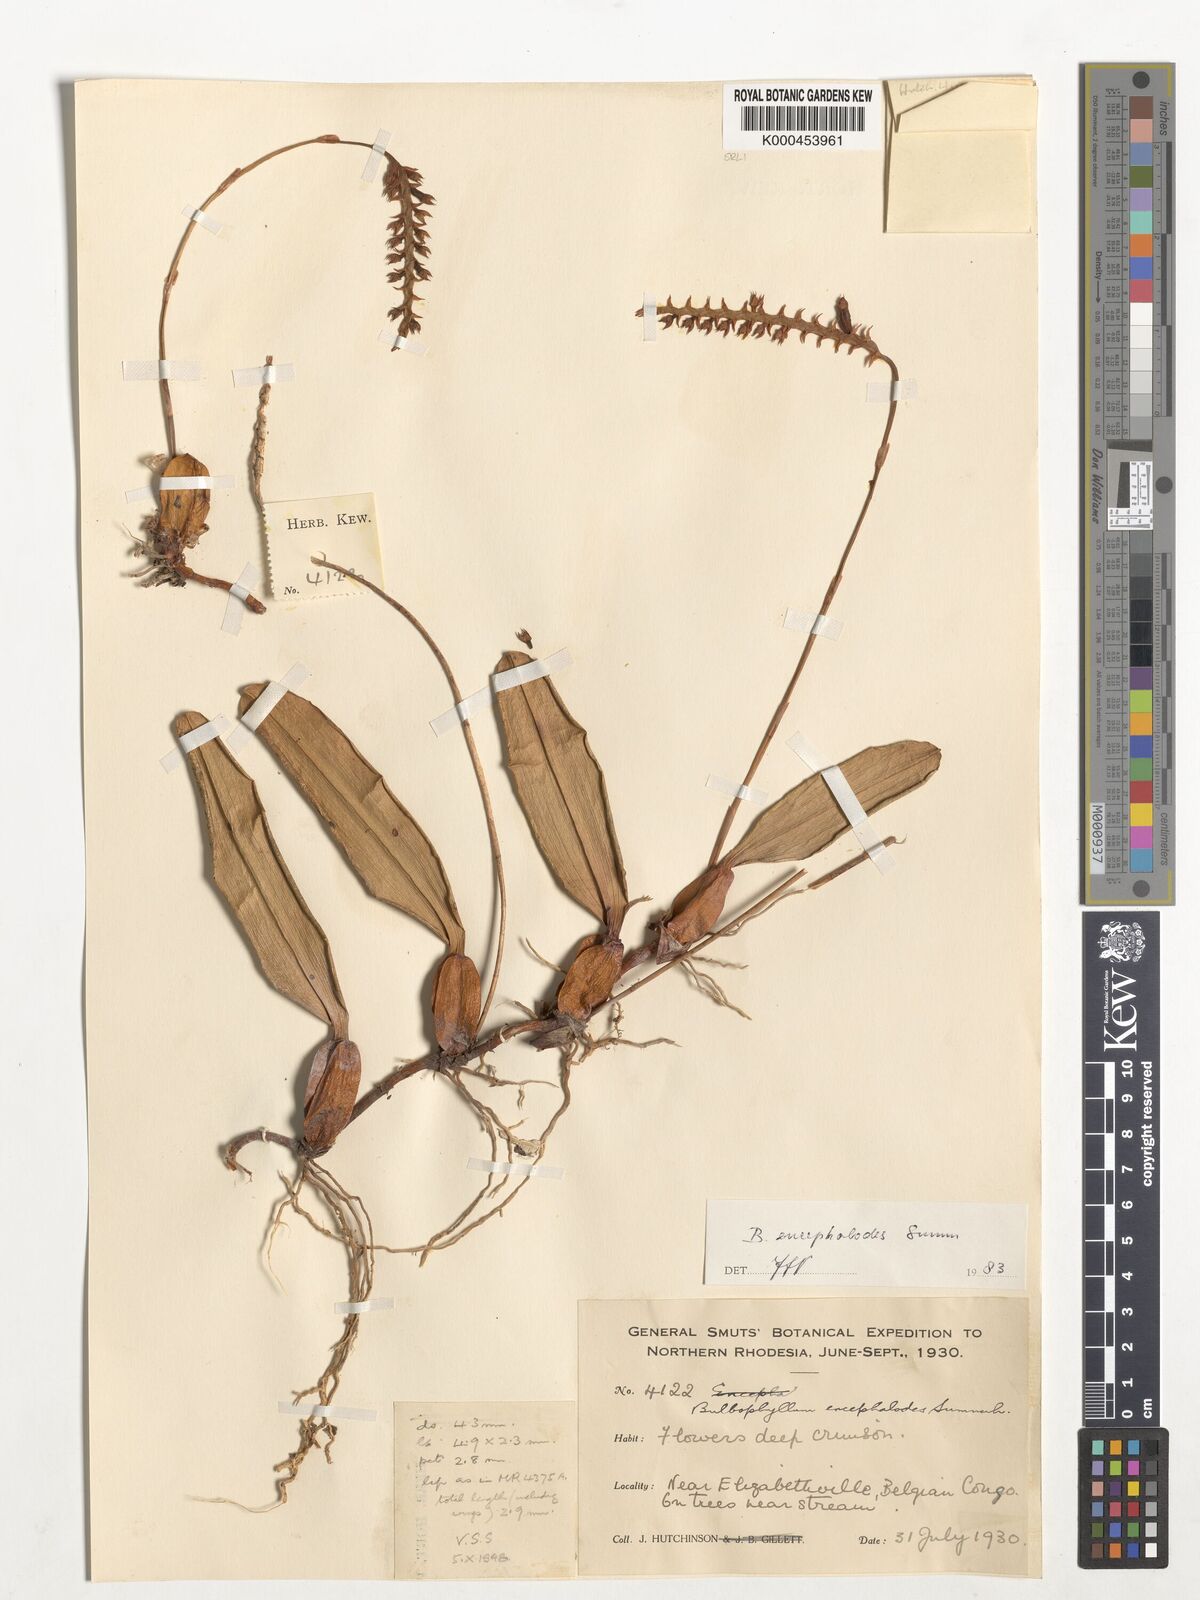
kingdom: Plantae
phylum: Tracheophyta
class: Liliopsida
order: Asparagales
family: Orchidaceae
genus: Bulbophyllum
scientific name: Bulbophyllum encephalodes
